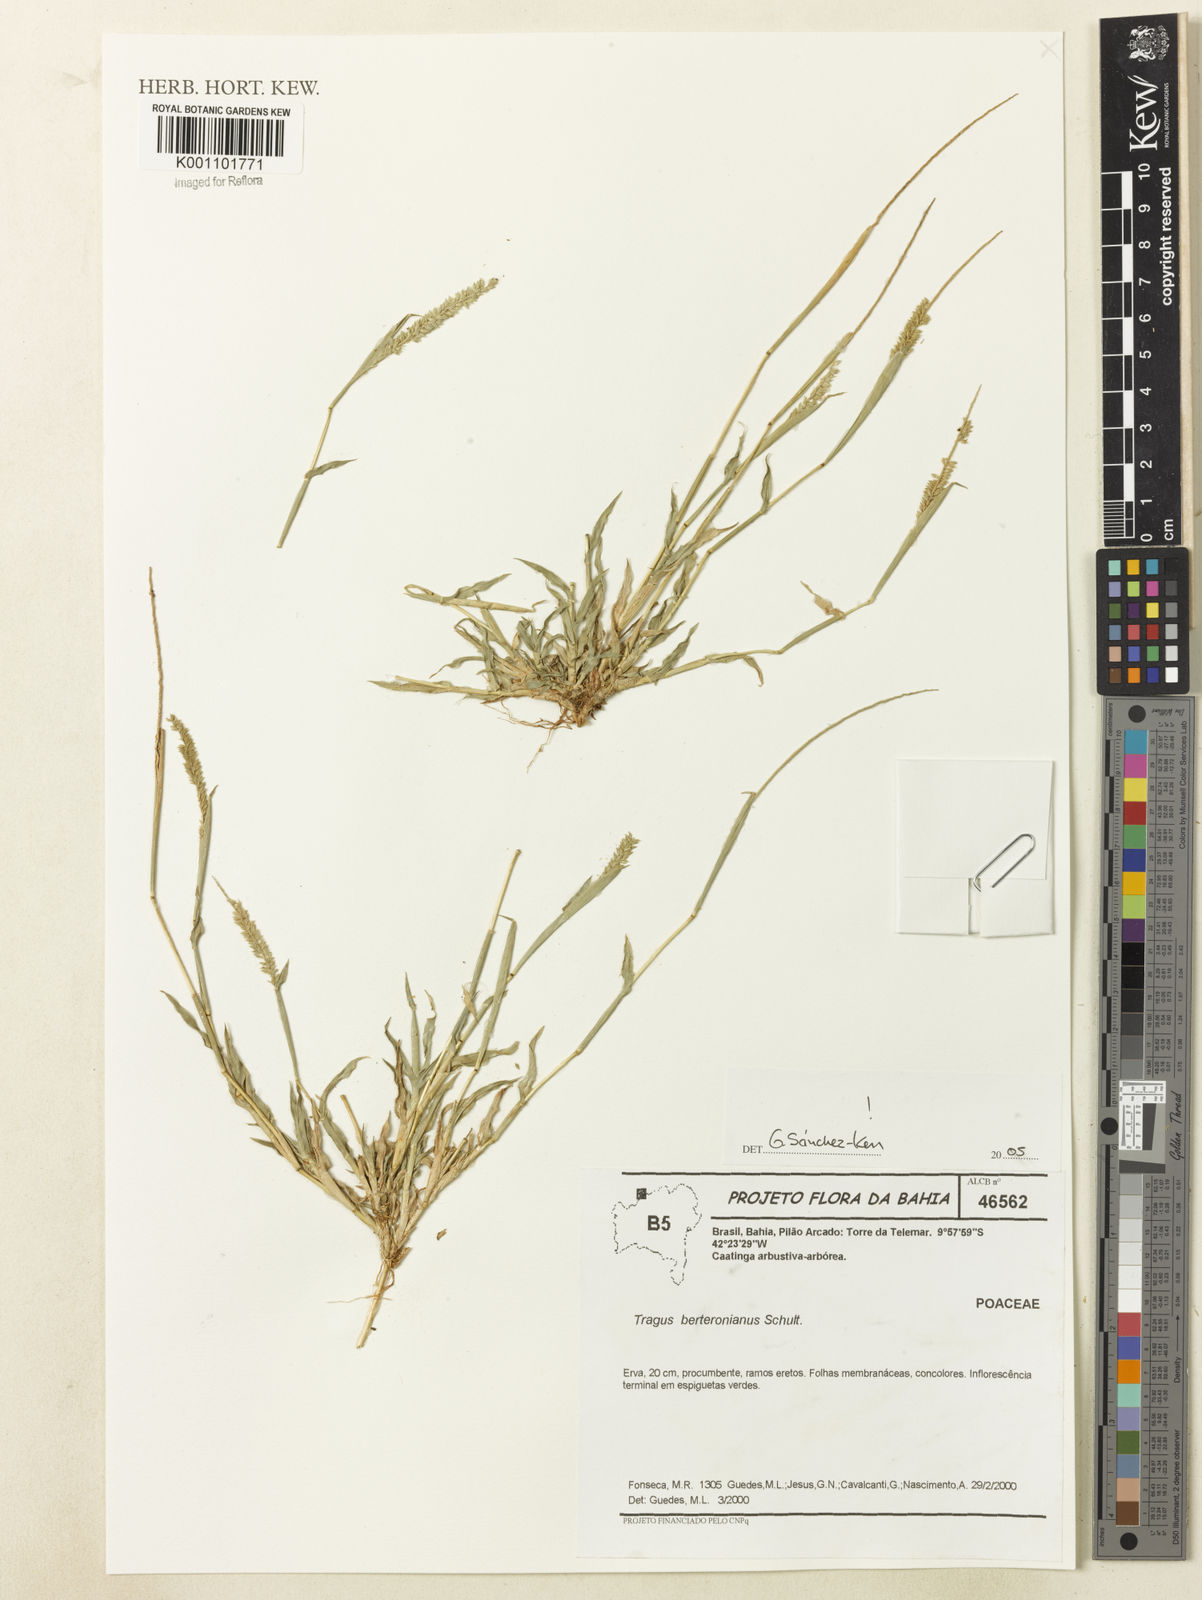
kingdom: Plantae
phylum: Tracheophyta
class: Liliopsida
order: Poales
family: Poaceae
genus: Tragus
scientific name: Tragus berteronianus
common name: African bur-grass
